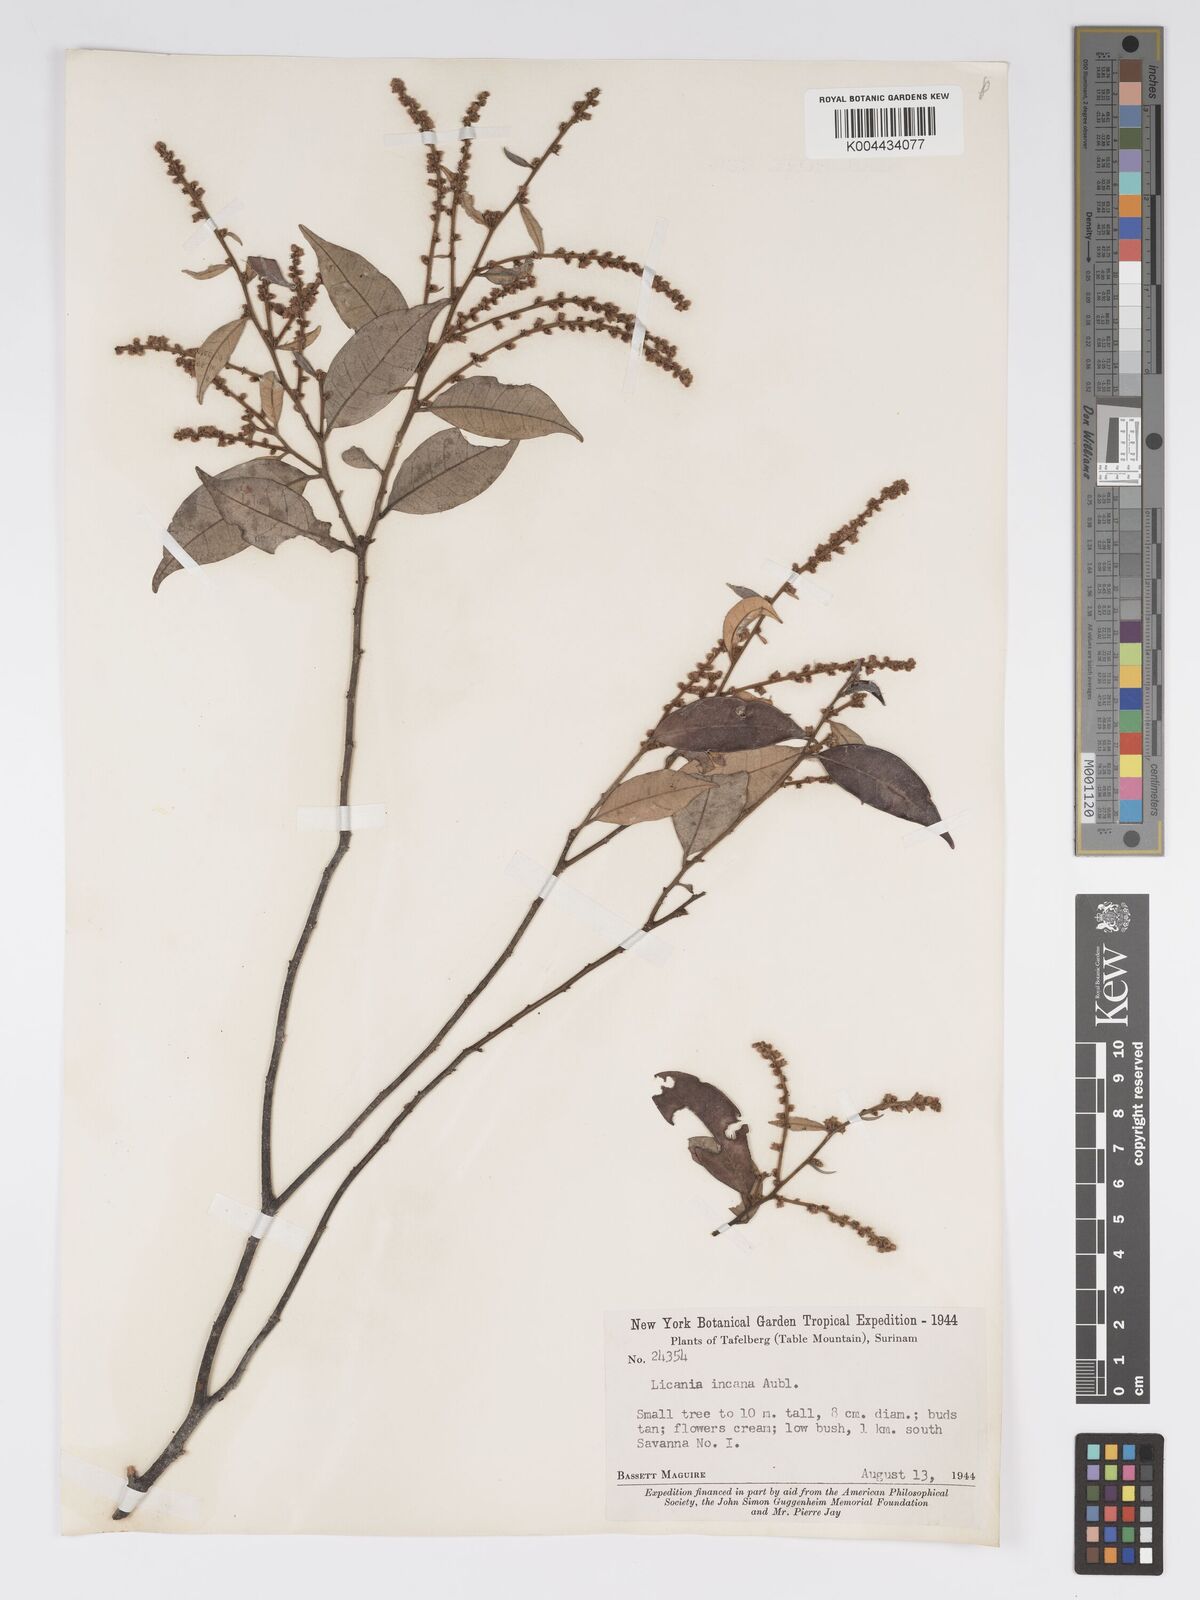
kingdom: Plantae
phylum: Tracheophyta
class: Magnoliopsida
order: Malpighiales
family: Chrysobalanaceae
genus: Licania
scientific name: Licania incana
